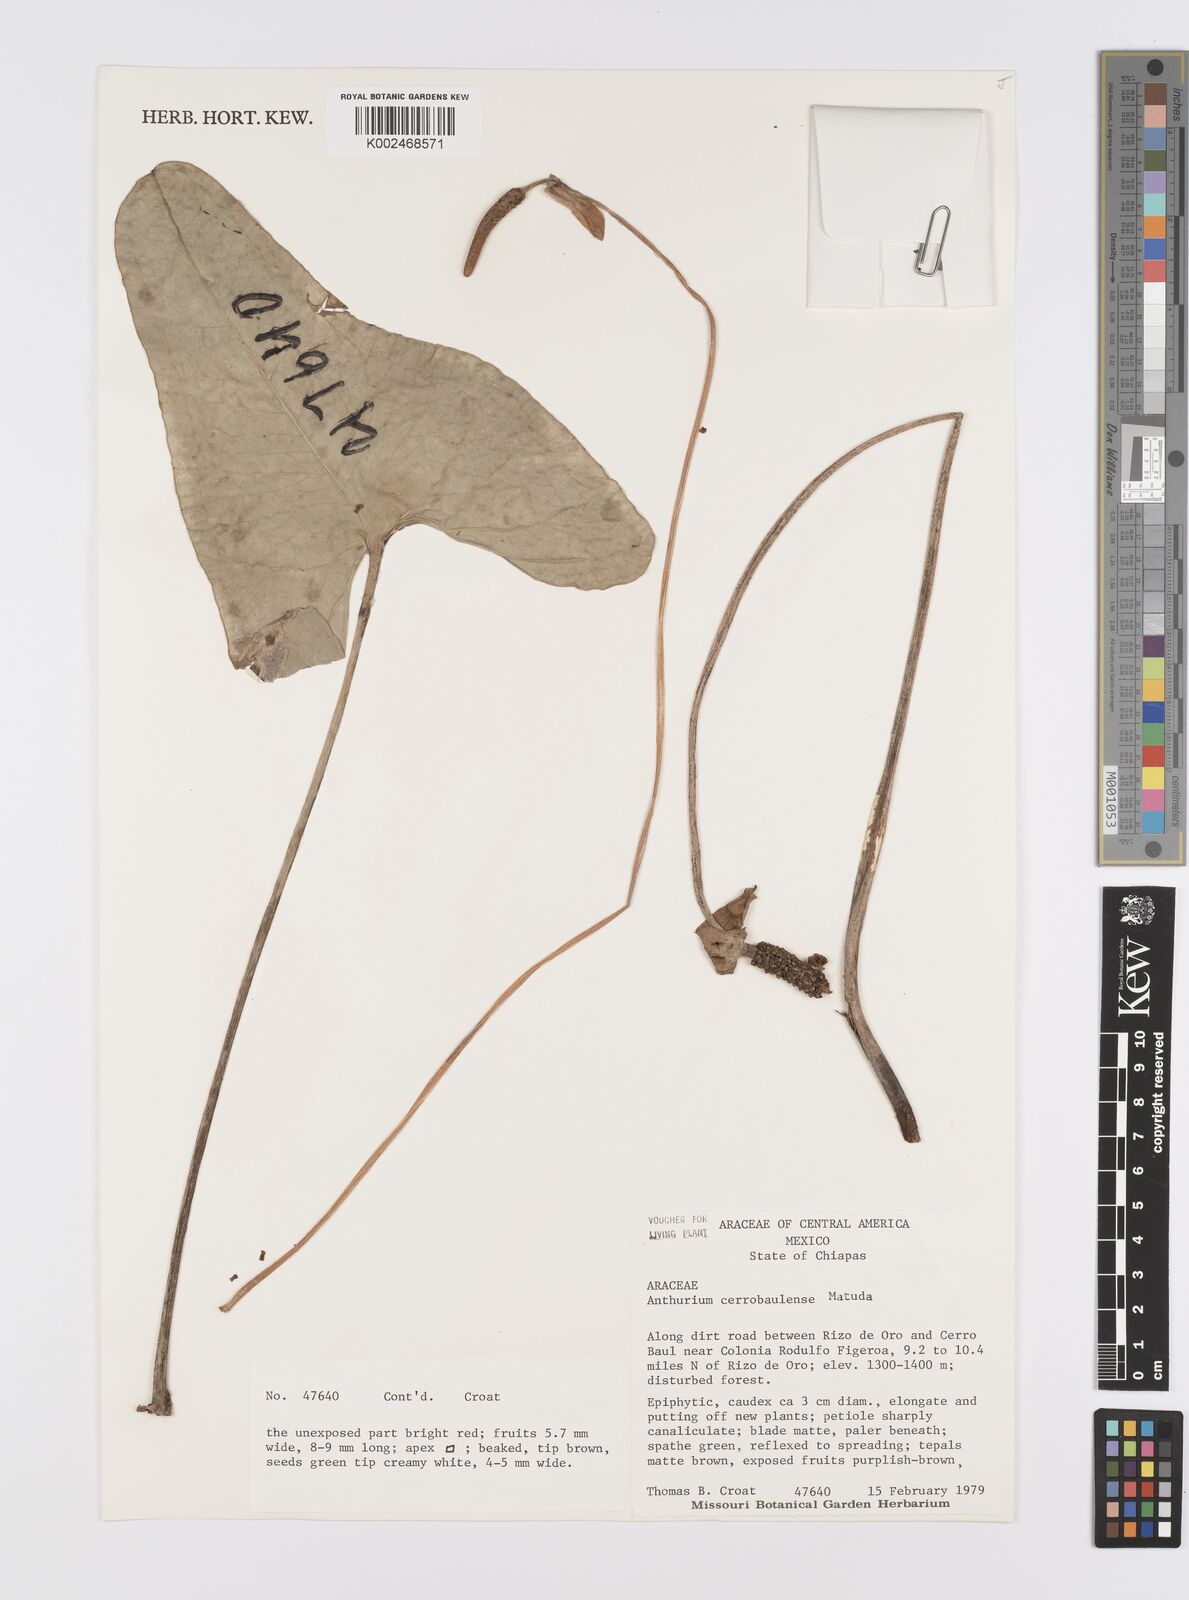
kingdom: Plantae
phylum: Tracheophyta
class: Liliopsida
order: Alismatales
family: Araceae
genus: Anthurium
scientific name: Anthurium cerrobaulense
